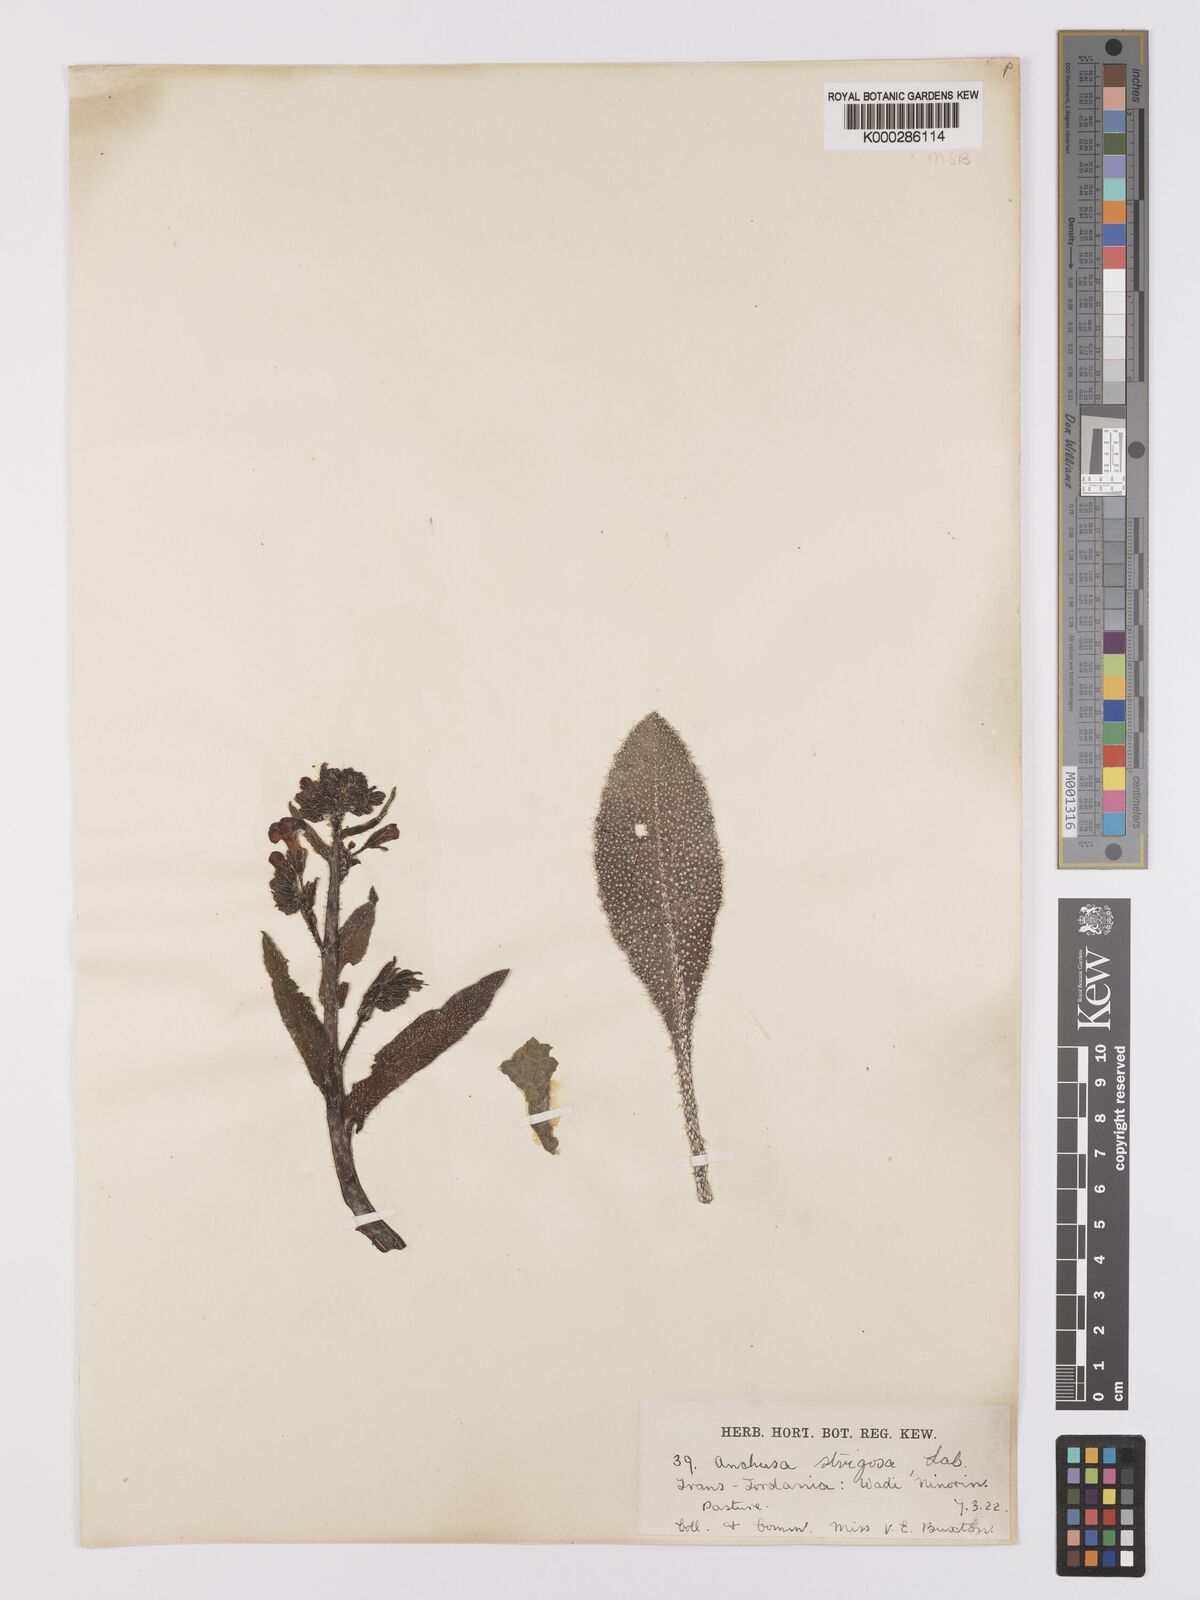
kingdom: Plantae
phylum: Tracheophyta
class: Magnoliopsida
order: Boraginales
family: Boraginaceae
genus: Anchusa
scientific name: Anchusa strigosa
